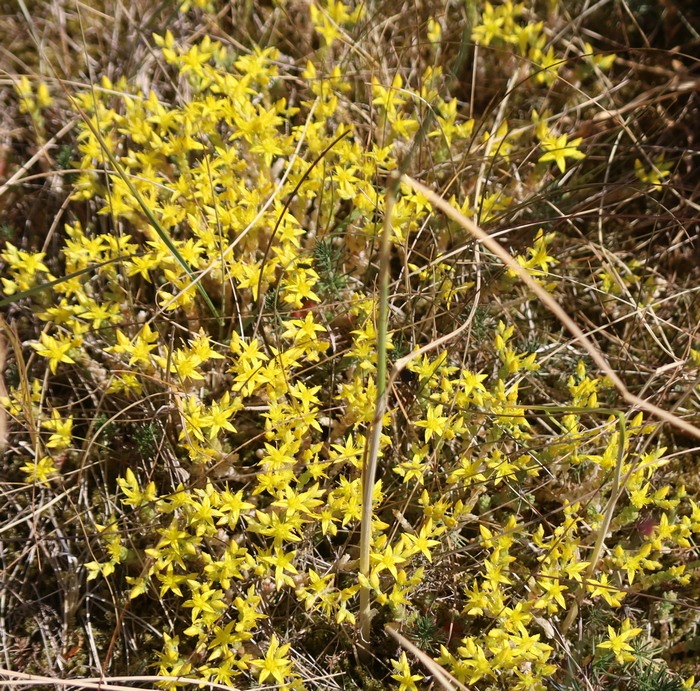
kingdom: Plantae
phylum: Tracheophyta
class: Magnoliopsida
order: Saxifragales
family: Crassulaceae
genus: Sedum
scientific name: Sedum acre
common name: Bidende stenurt
